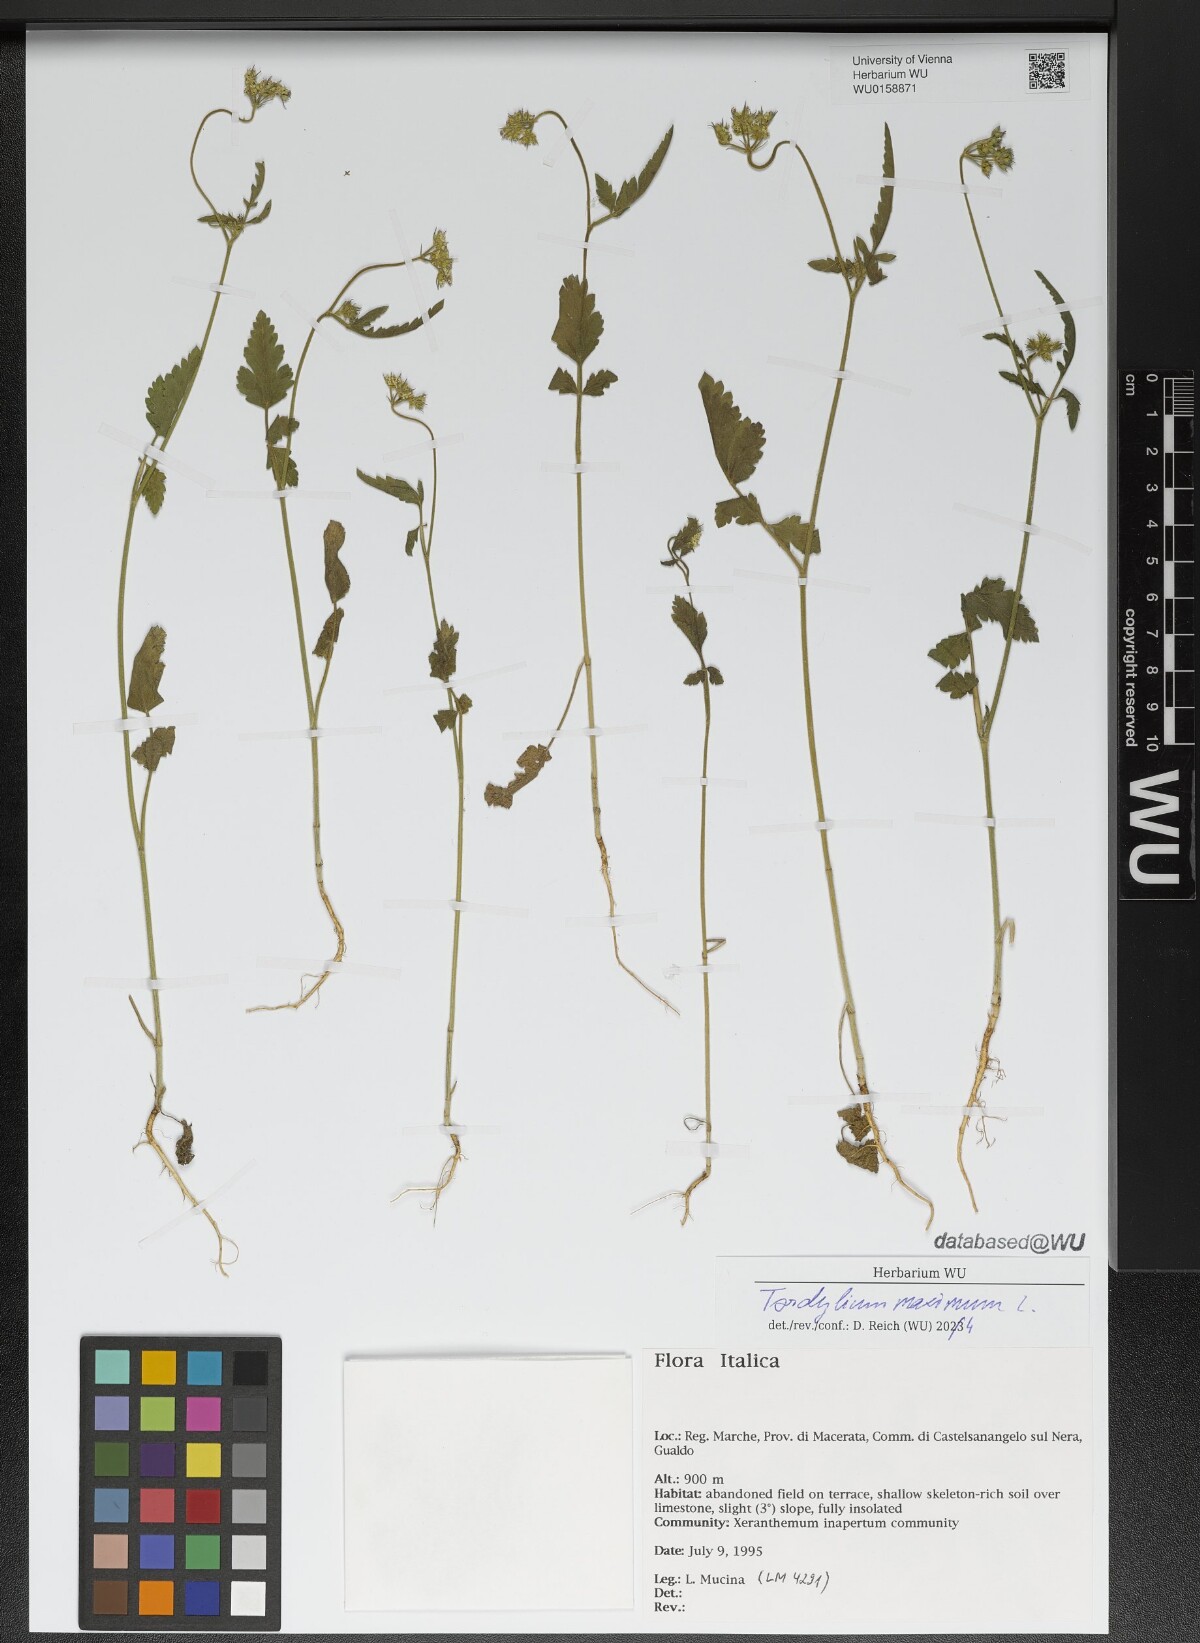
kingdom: Plantae
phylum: Tracheophyta
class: Magnoliopsida
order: Apiales
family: Apiaceae
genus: Tordylium
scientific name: Tordylium maximum
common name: Hartwort
